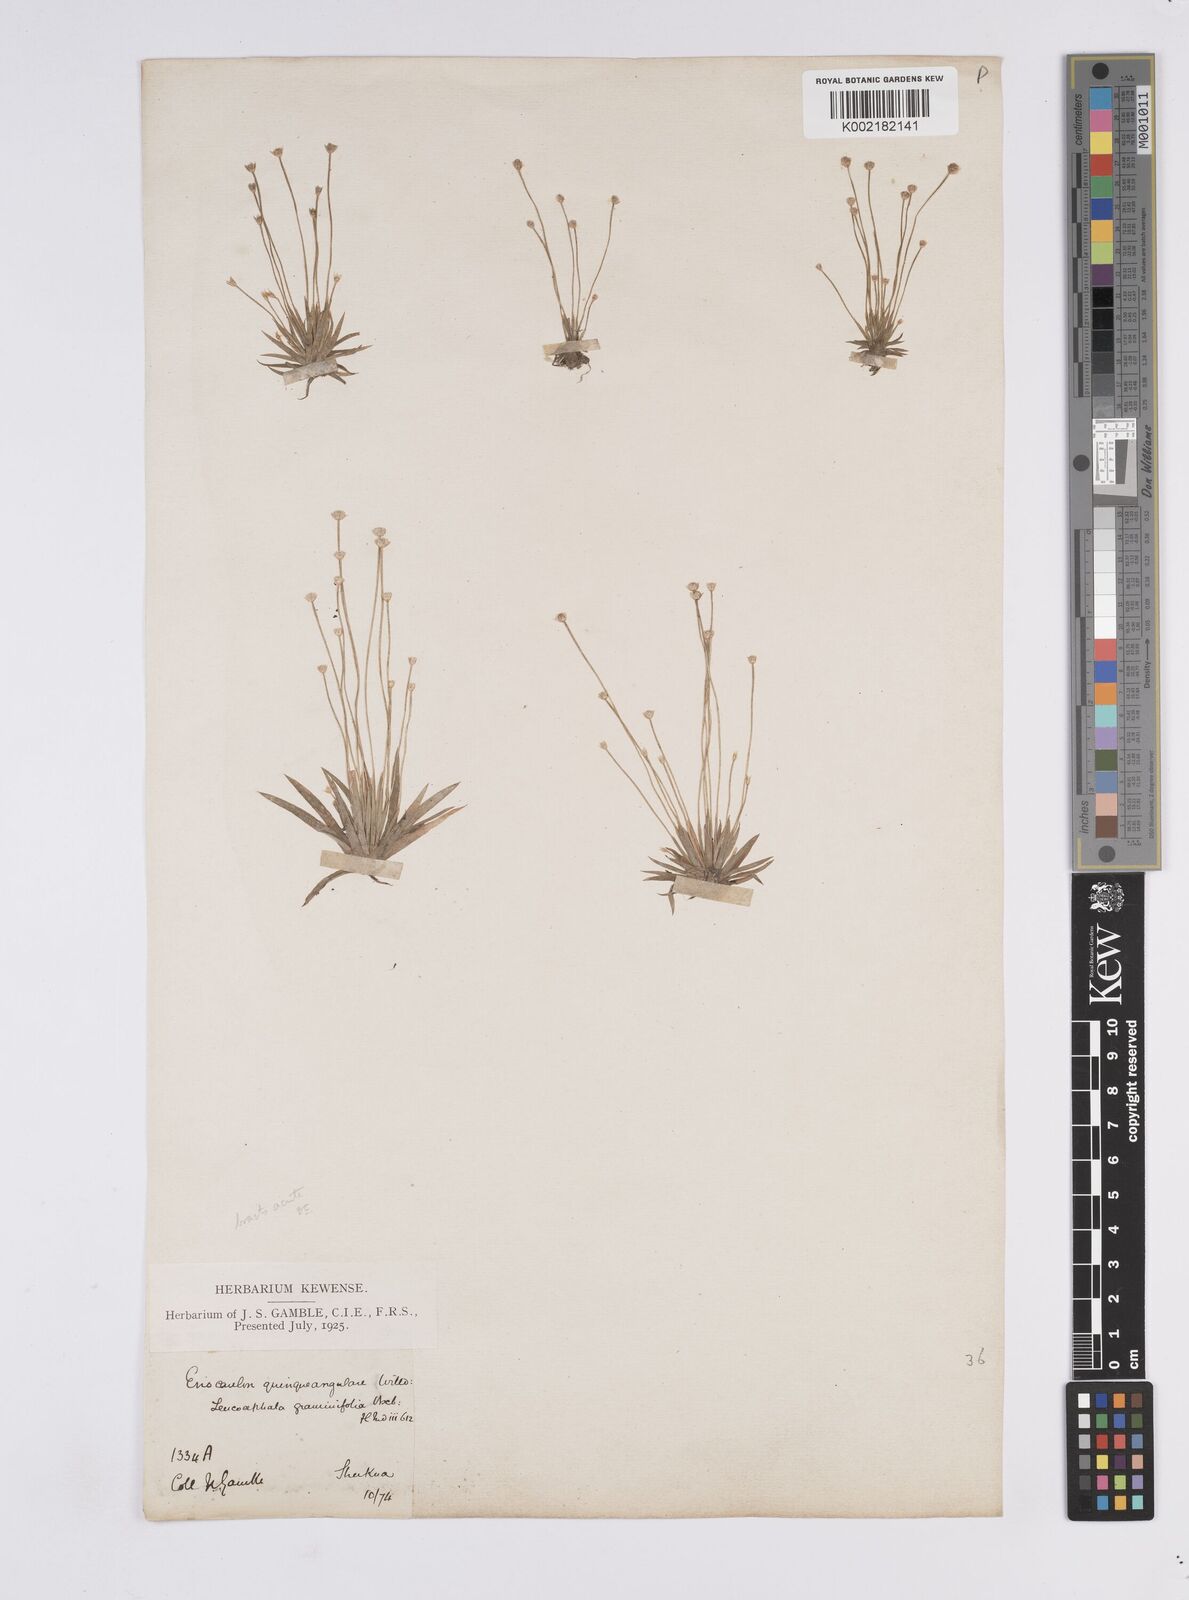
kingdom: Plantae
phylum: Tracheophyta
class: Liliopsida
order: Poales
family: Eriocaulaceae
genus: Eriocaulon
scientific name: Eriocaulon
